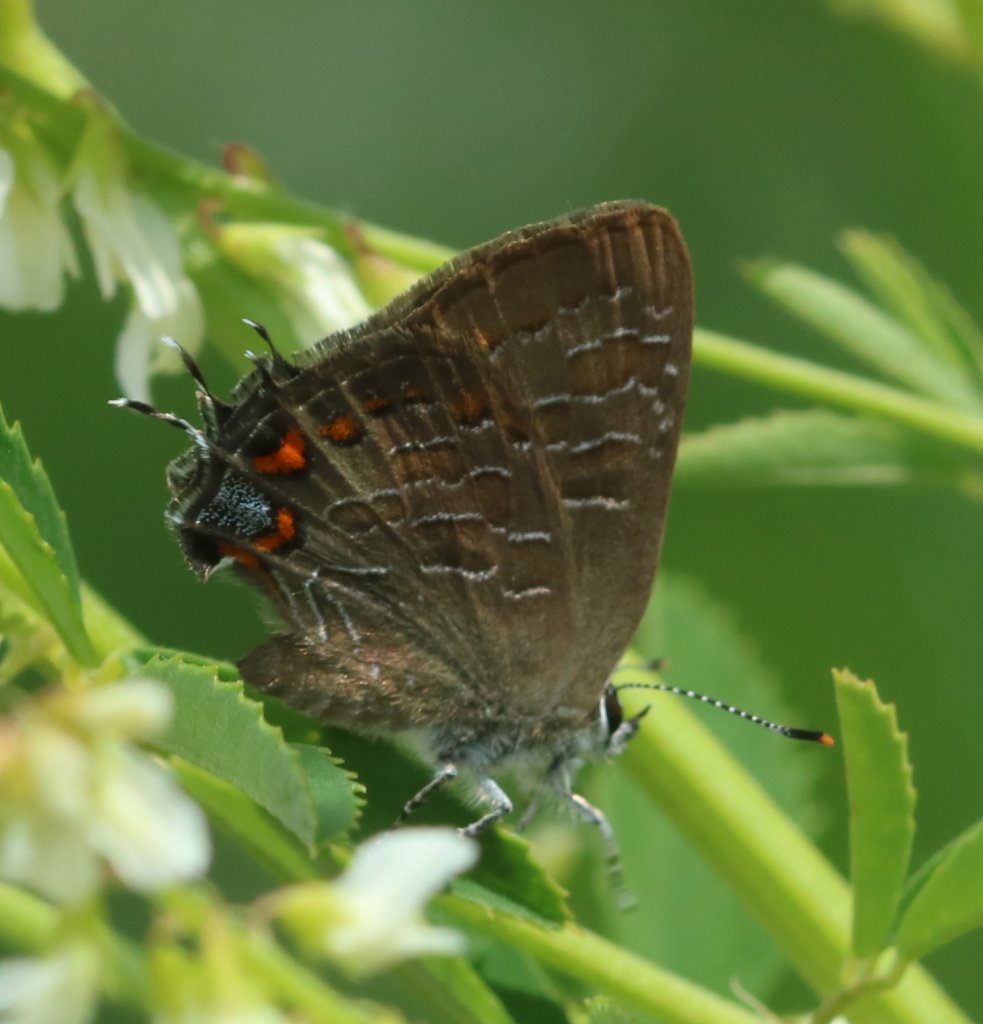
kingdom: Animalia
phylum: Arthropoda
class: Insecta
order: Lepidoptera
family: Lycaenidae
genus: Satyrium
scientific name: Satyrium liparops
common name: Striped Hairstreak
